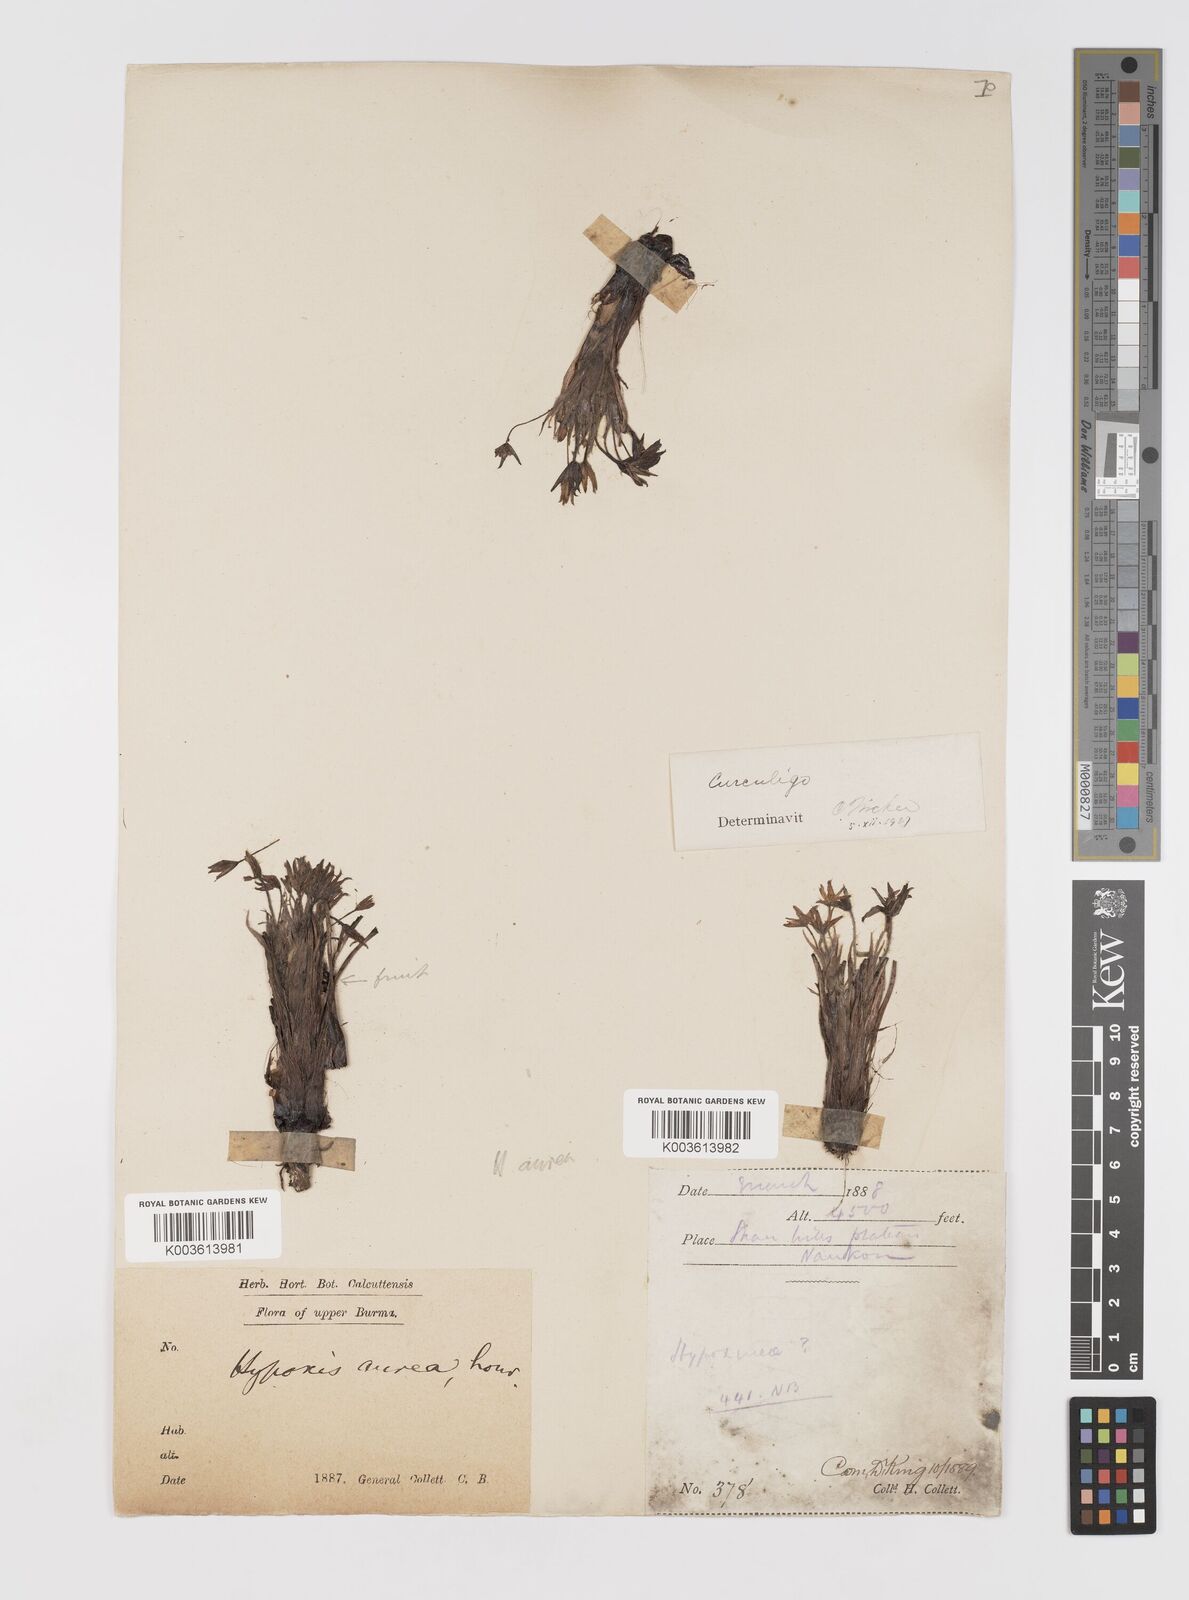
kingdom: Plantae
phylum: Tracheophyta
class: Liliopsida
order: Asparagales
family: Hypoxidaceae
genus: Curculigo
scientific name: Curculigo orchioides
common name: Golden eye-grass
